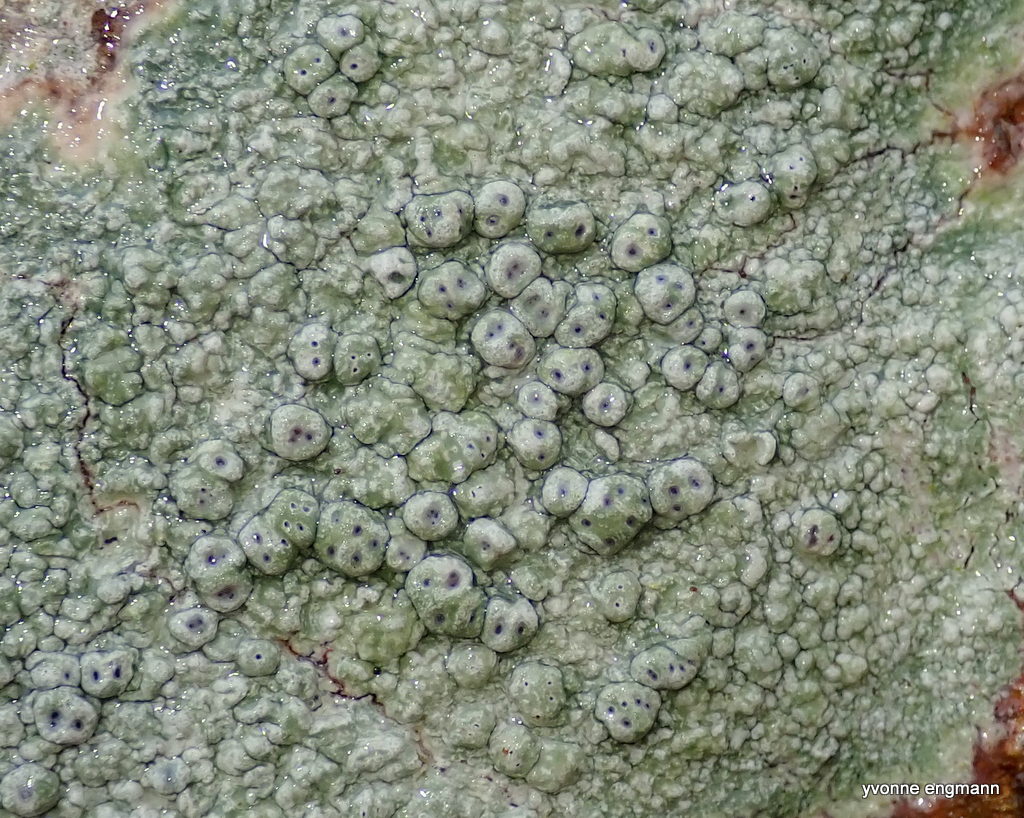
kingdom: Fungi
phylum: Ascomycota
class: Lecanoromycetes
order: Pertusariales
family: Pertusariaceae
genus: Pertusaria
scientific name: Pertusaria pertusa
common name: almindelig prikvortelav
